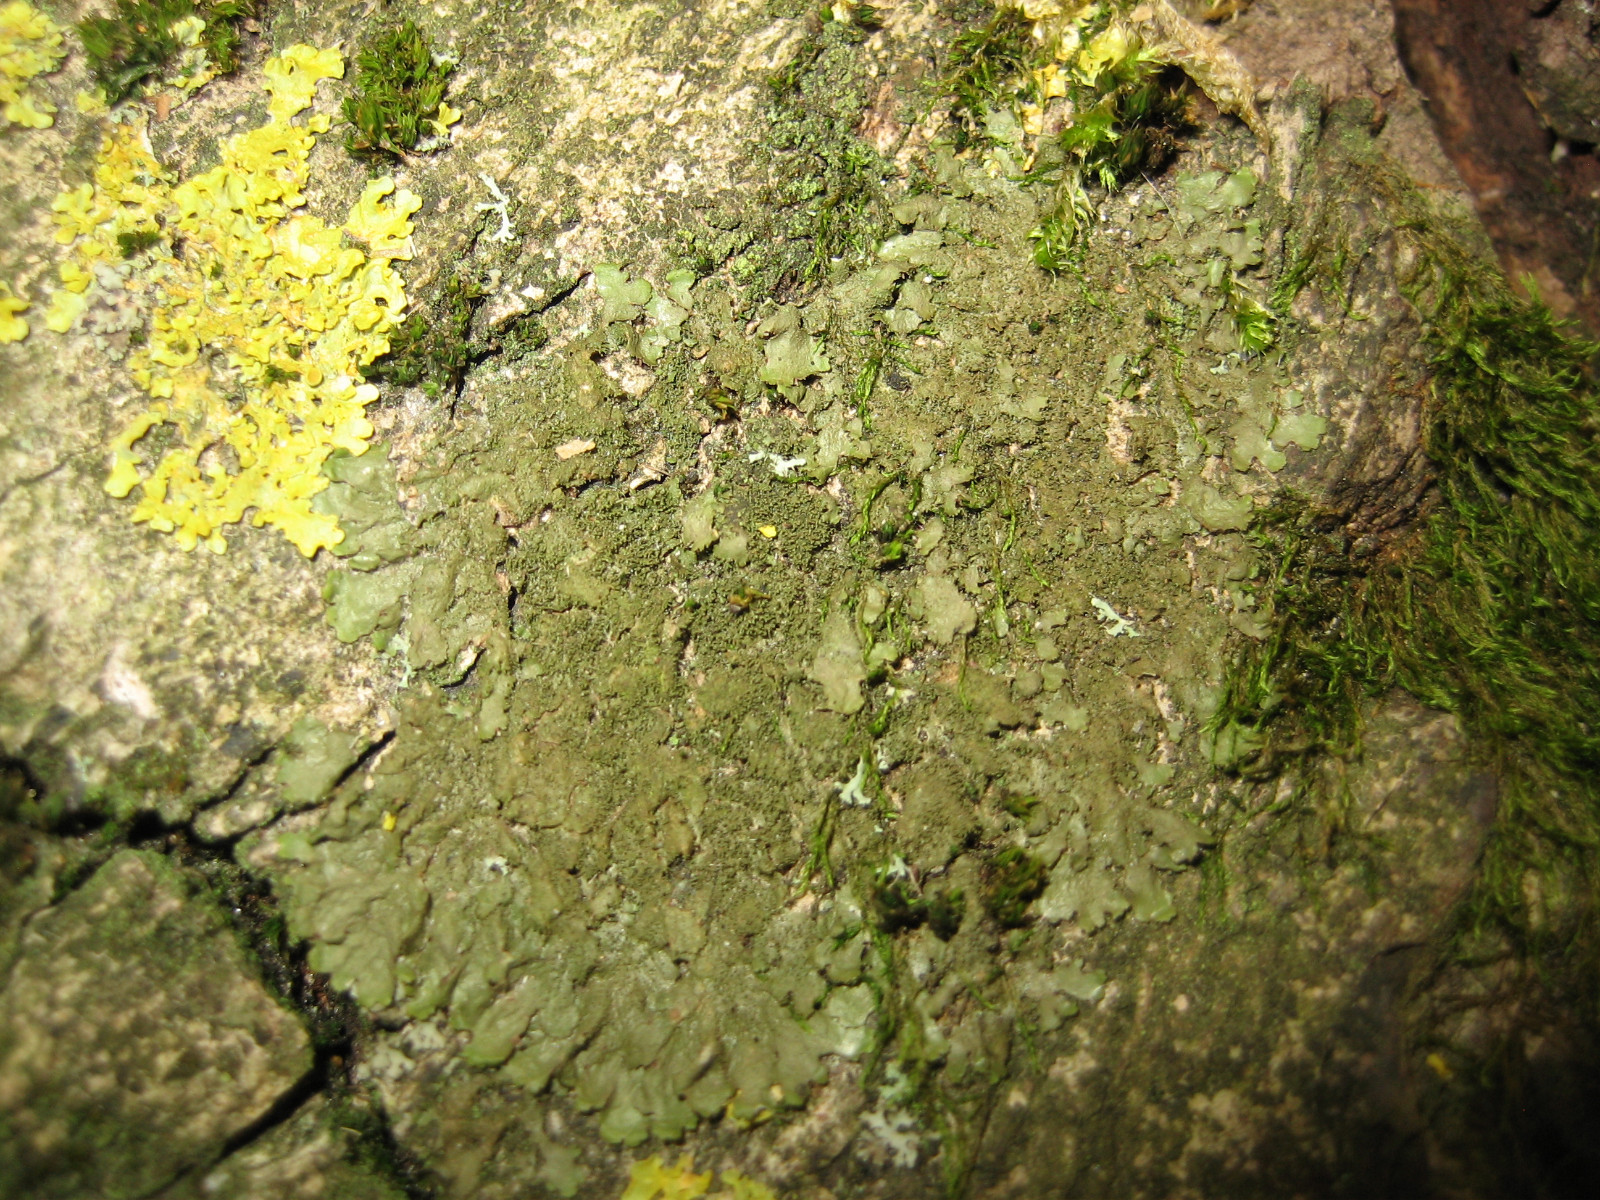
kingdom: Fungi
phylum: Ascomycota
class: Lecanoromycetes
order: Lecanorales
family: Parmeliaceae
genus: Melanohalea
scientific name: Melanohalea elegantula
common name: elegant skållav
